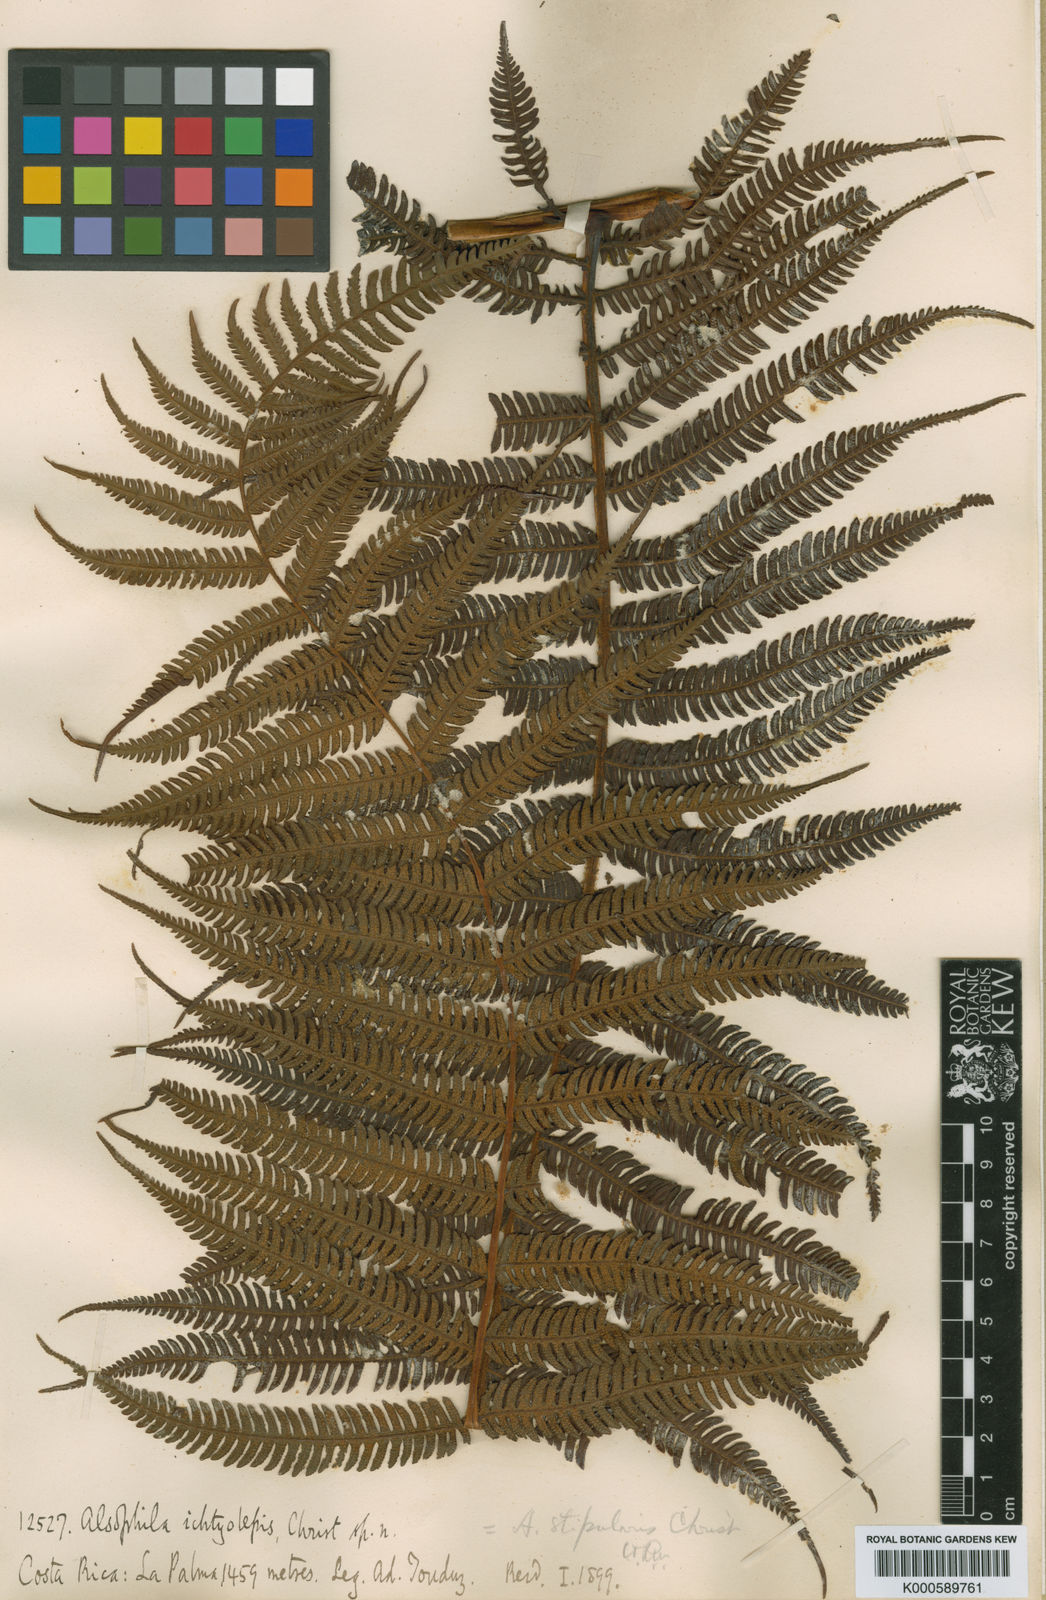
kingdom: Plantae
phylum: Tracheophyta
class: Polypodiopsida
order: Cyatheales
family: Cyatheaceae
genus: Cyathea
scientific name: Cyathea bicrenata
